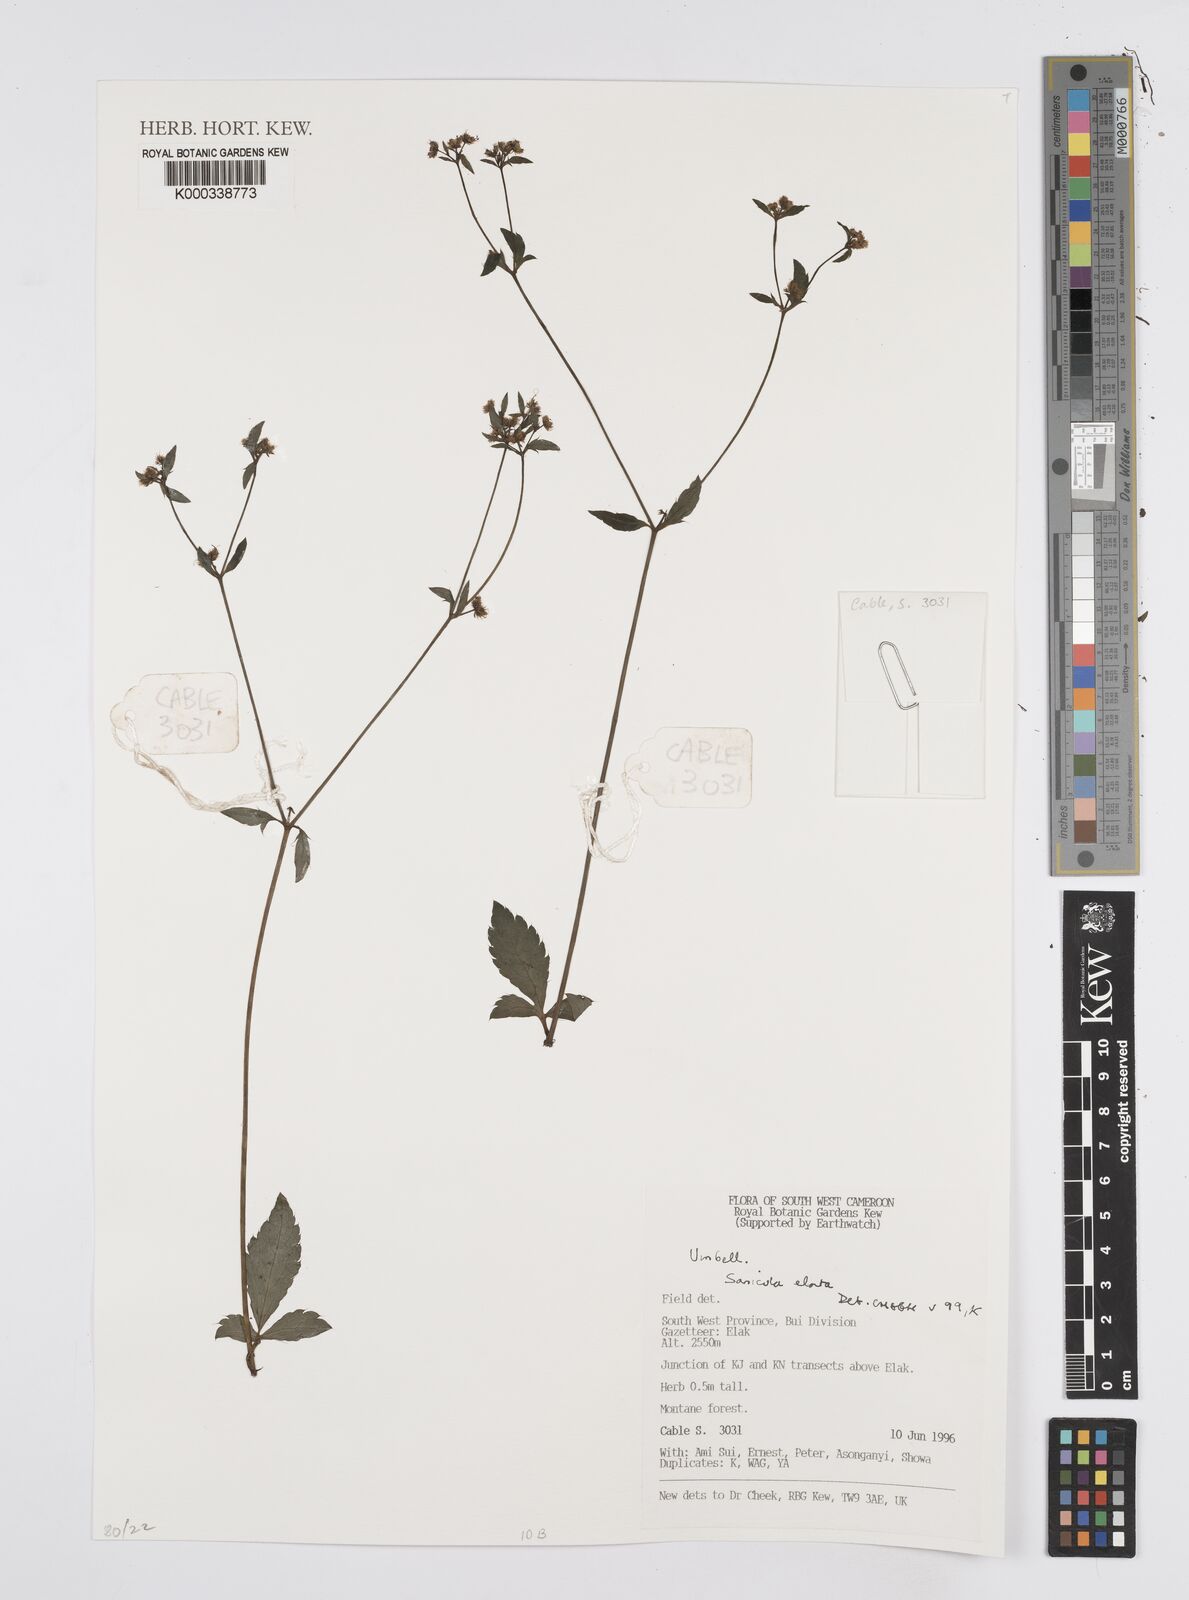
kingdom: Plantae
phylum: Tracheophyta
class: Magnoliopsida
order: Apiales
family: Apiaceae
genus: Sanicula
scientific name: Sanicula
